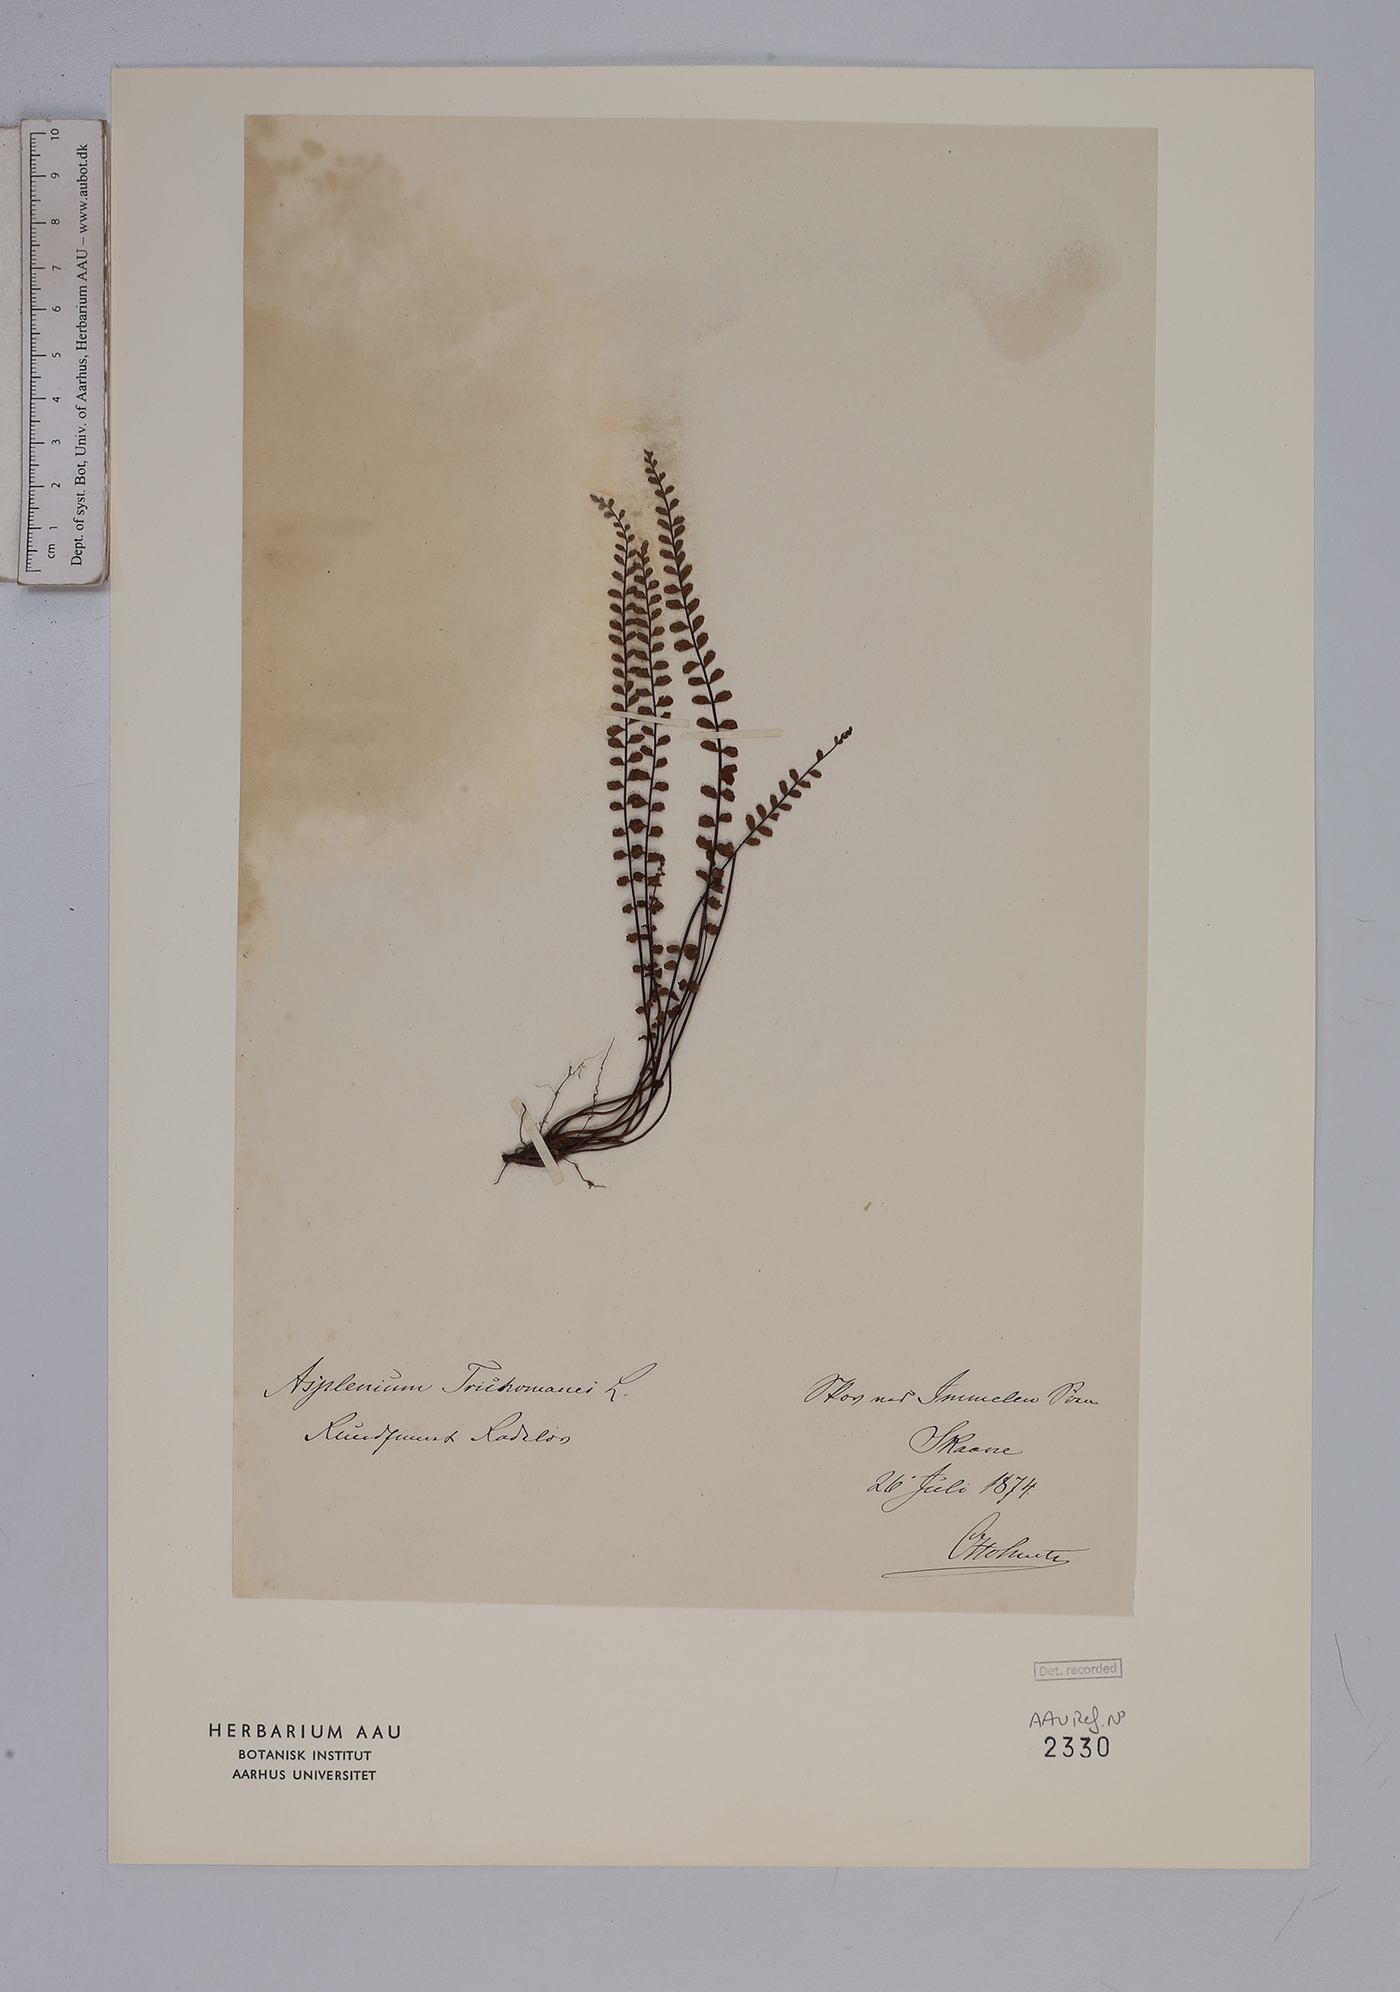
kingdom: Plantae
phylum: Tracheophyta
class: Polypodiopsida
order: Polypodiales
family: Aspleniaceae
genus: Asplenium
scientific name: Asplenium trichomanes
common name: Maidenhair spleenwort
